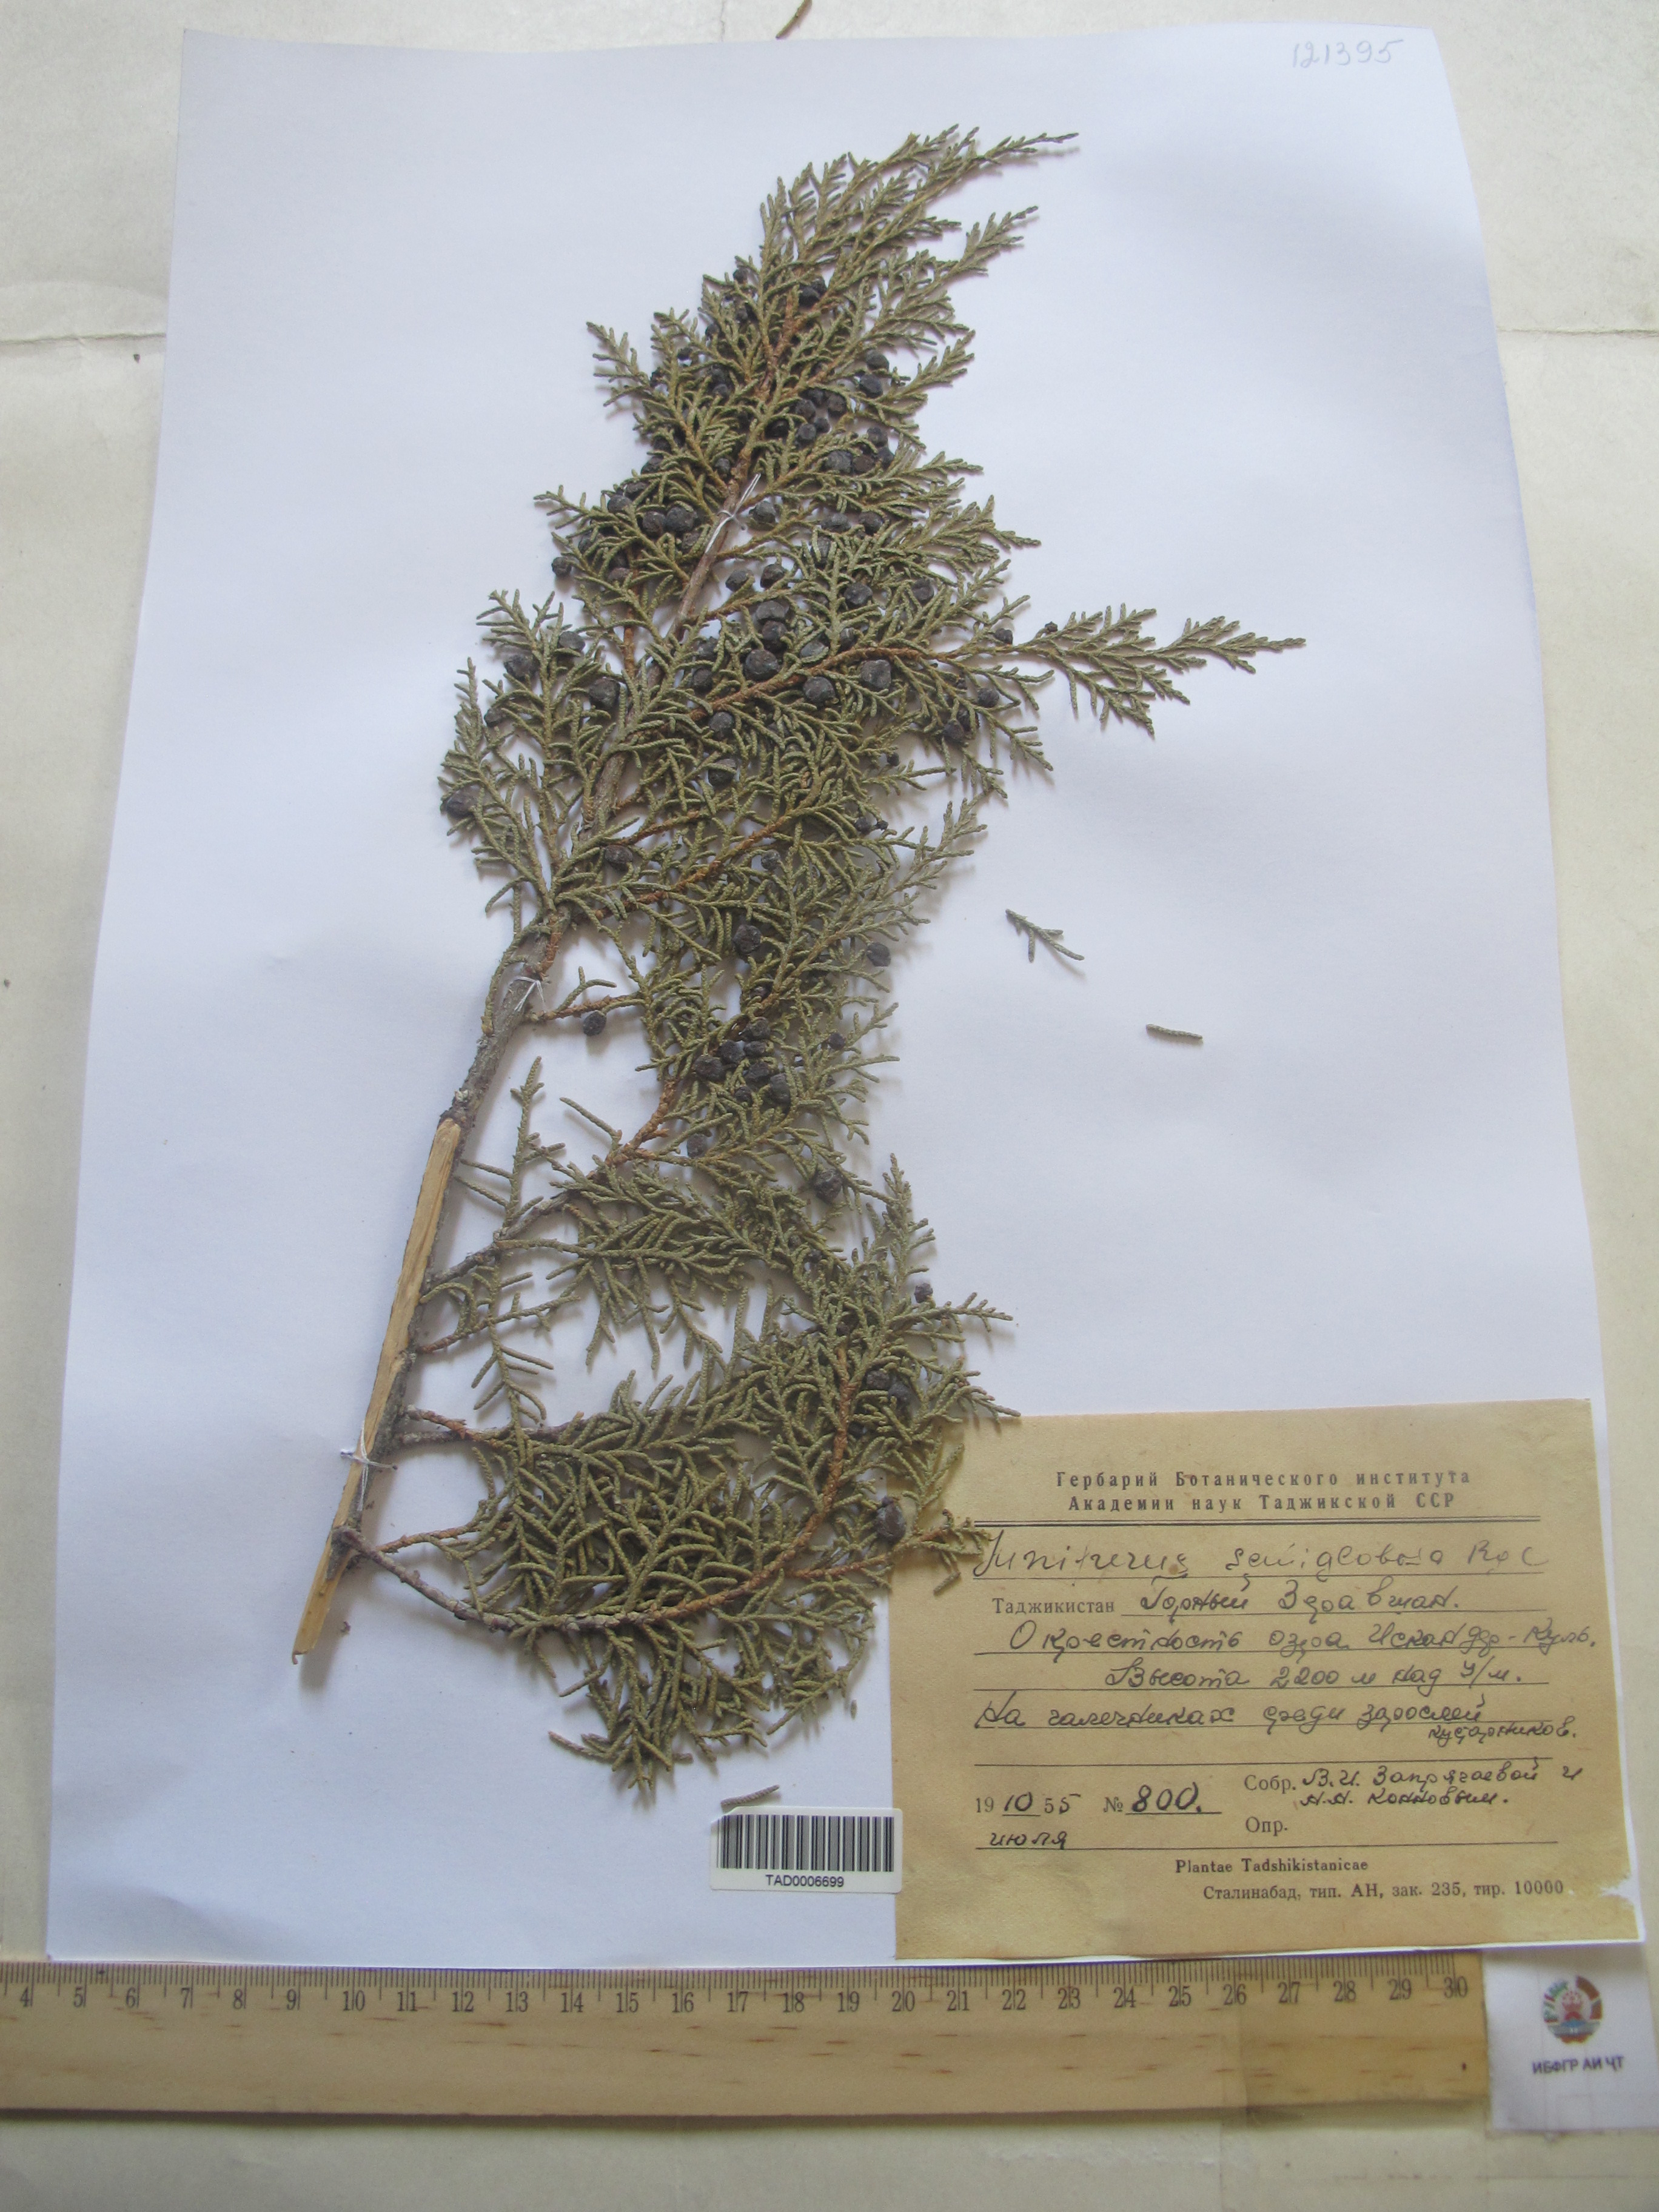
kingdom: Plantae
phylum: Tracheophyta
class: Pinopsida
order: Pinales
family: Cupressaceae
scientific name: Cupressaceae
